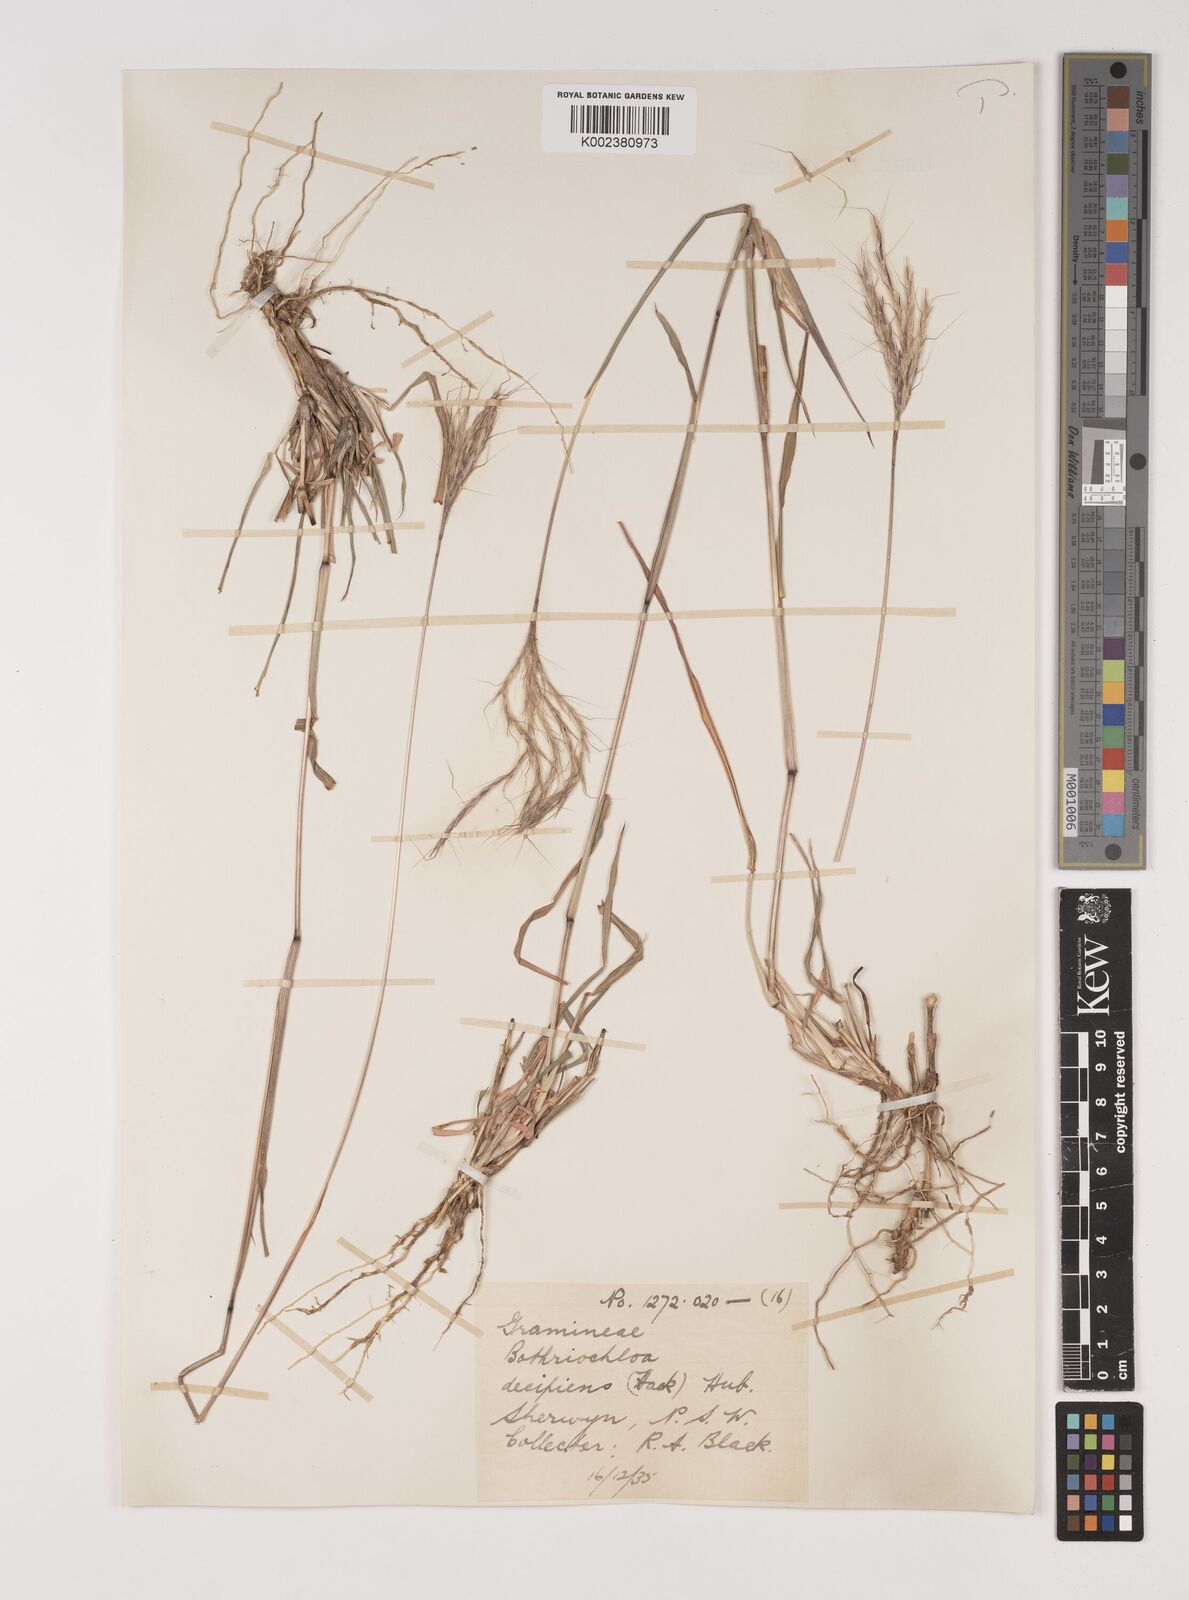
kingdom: Plantae
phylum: Tracheophyta
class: Liliopsida
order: Poales
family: Poaceae
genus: Bothriochloa
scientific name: Bothriochloa decipiens
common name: Pitted-bluegrass
